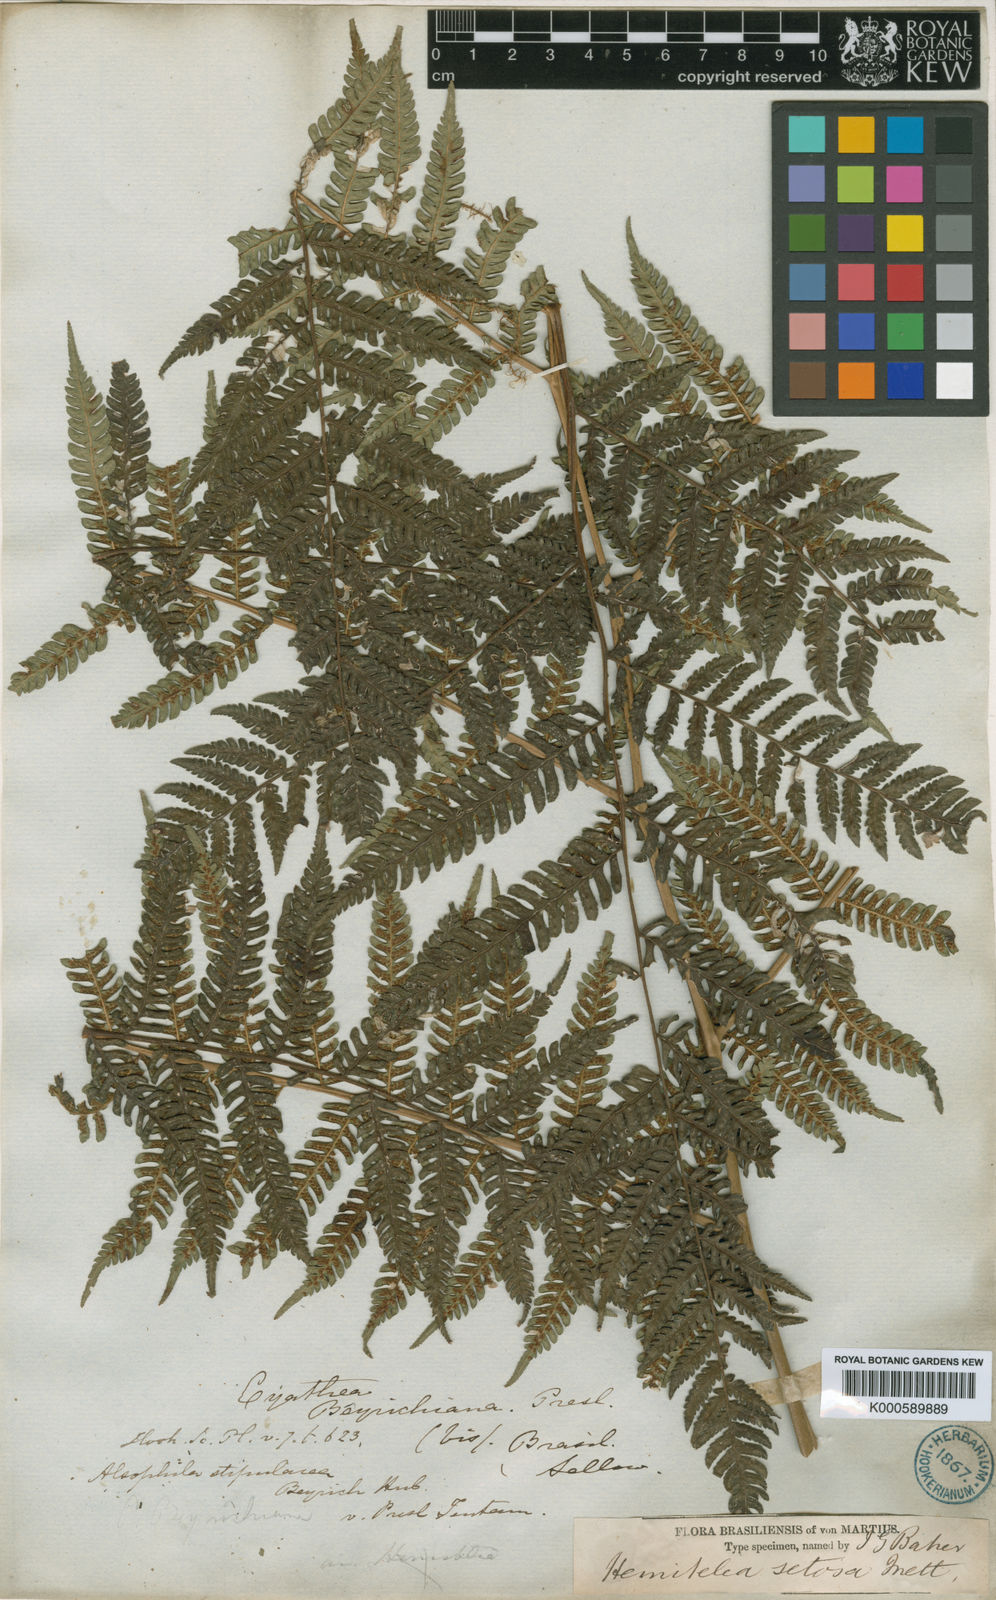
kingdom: Plantae
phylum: Tracheophyta
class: Polypodiopsida
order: Cyatheales
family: Cyatheaceae
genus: Alsophila
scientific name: Alsophila setosa
